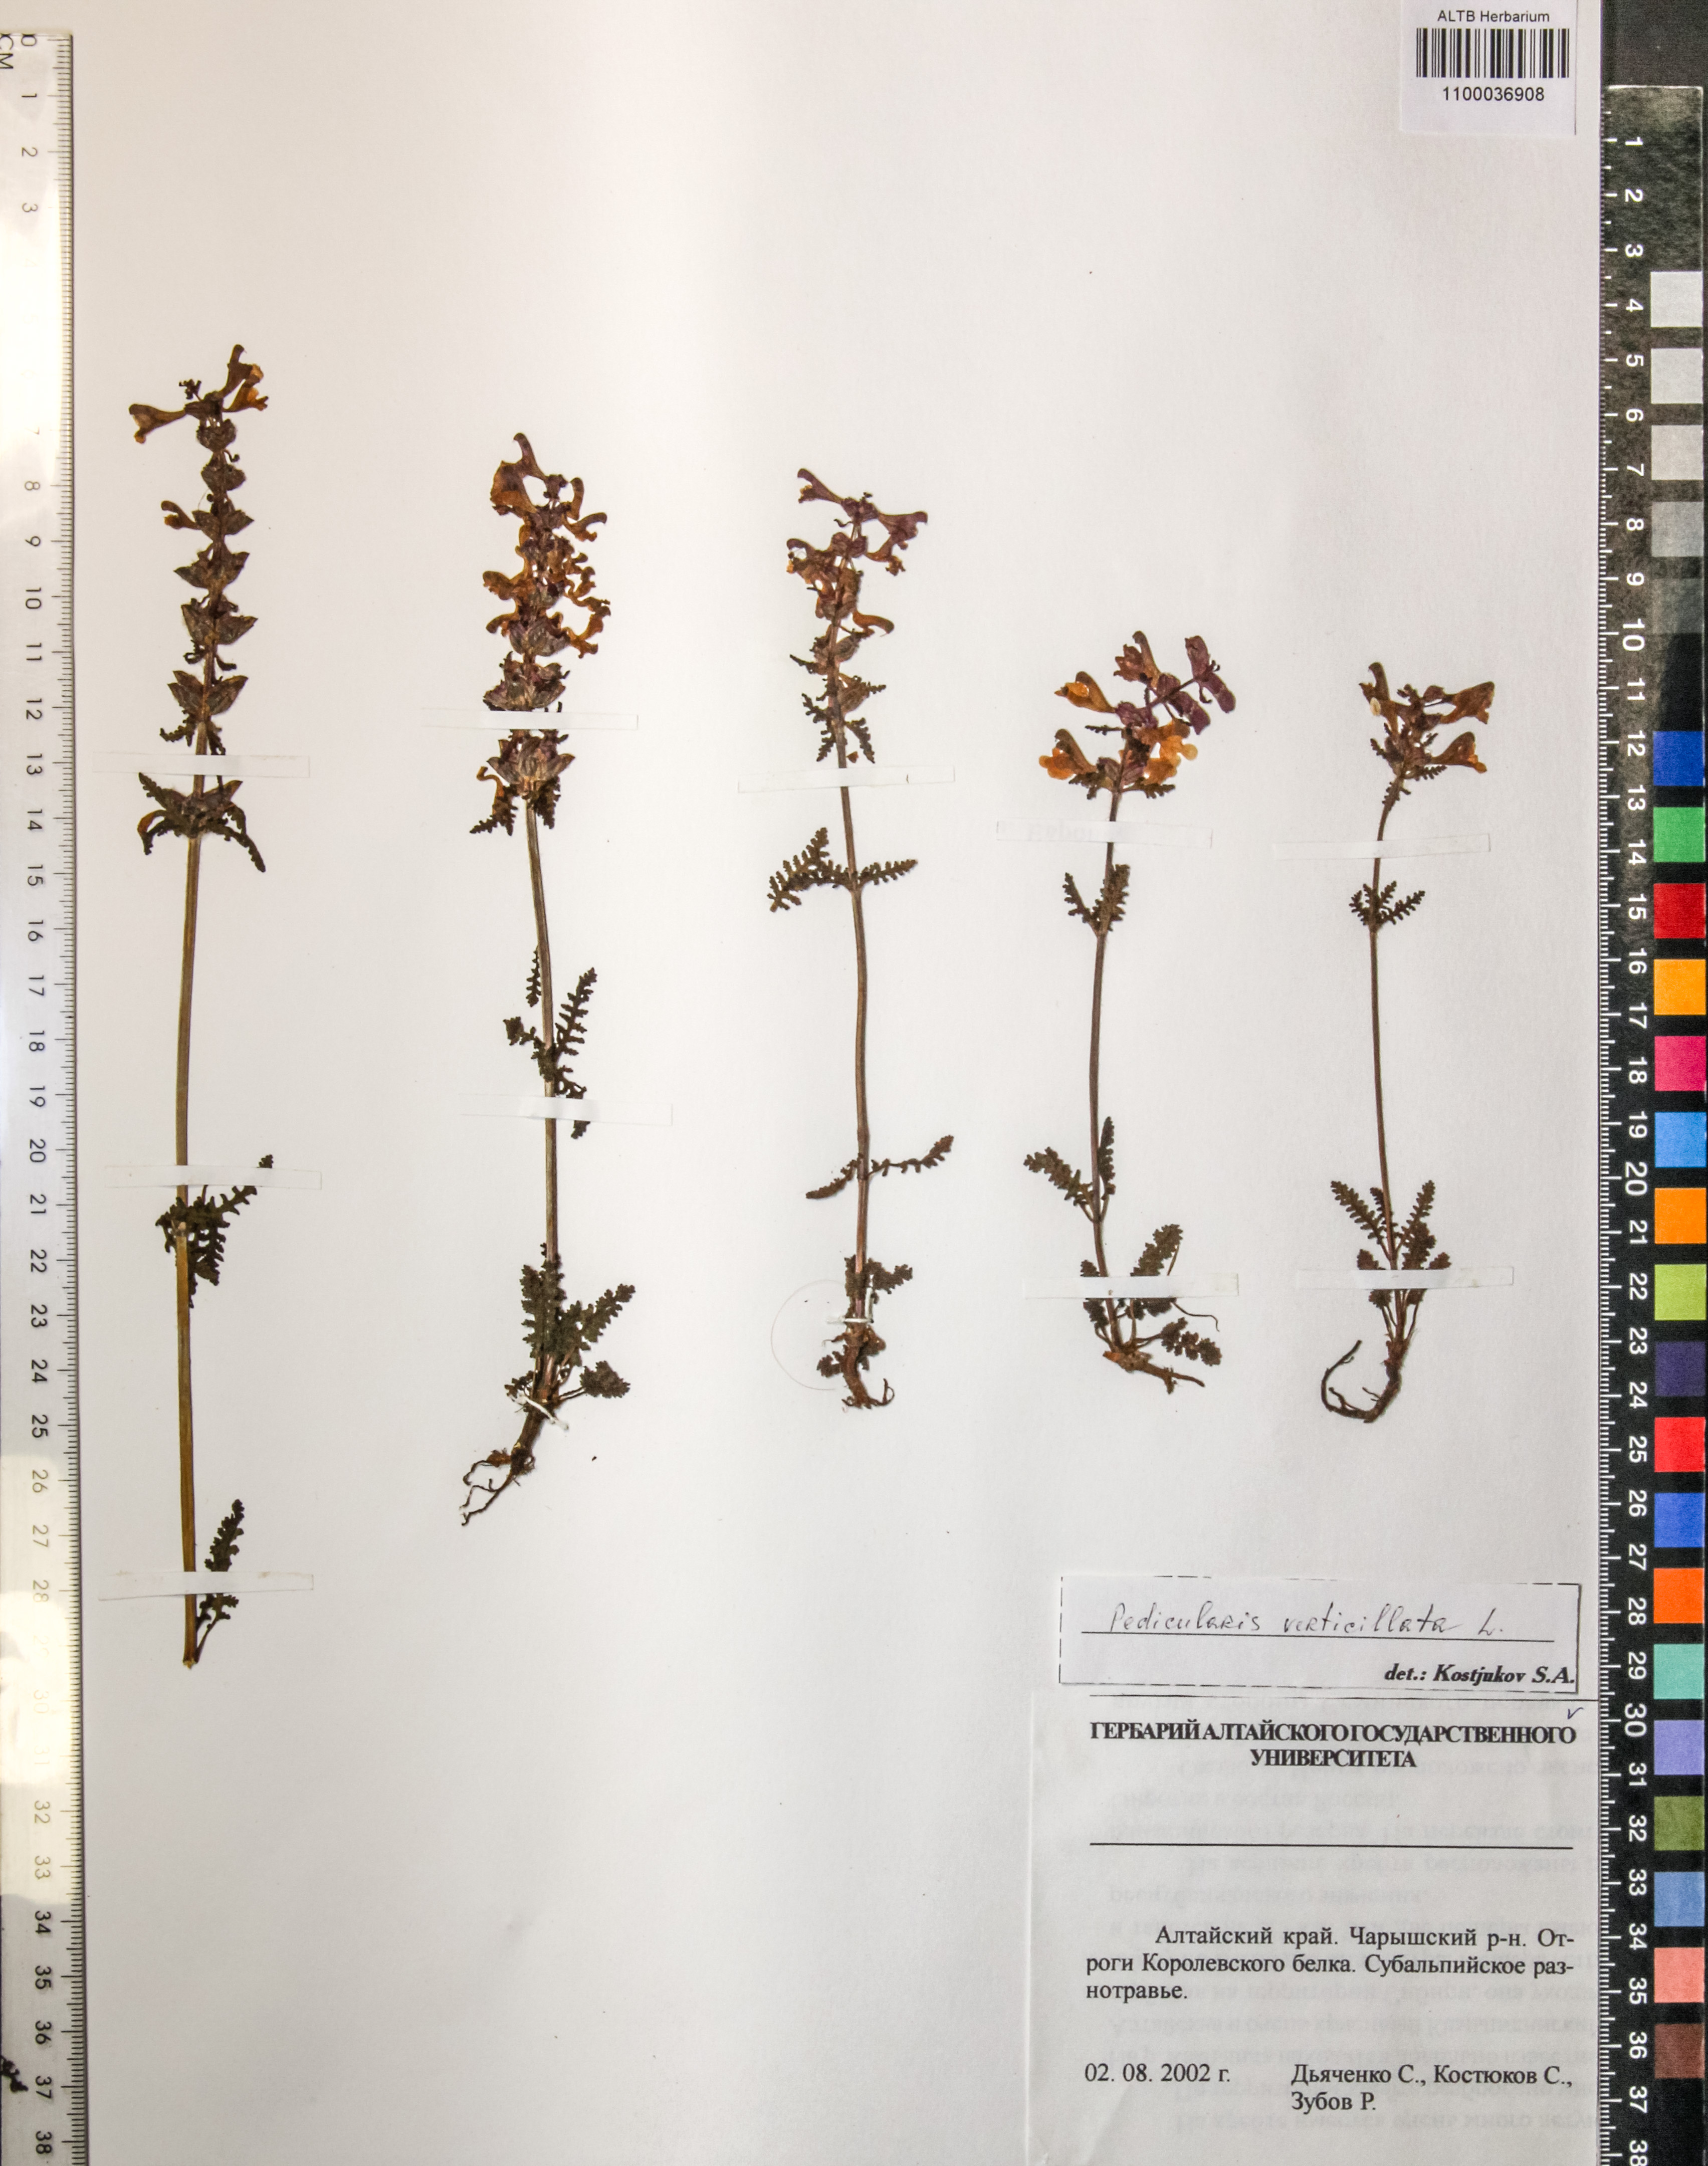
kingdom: Plantae
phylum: Tracheophyta
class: Magnoliopsida
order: Lamiales
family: Orobanchaceae
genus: Pedicularis
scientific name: Pedicularis verticillata
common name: Whorled lousewort
